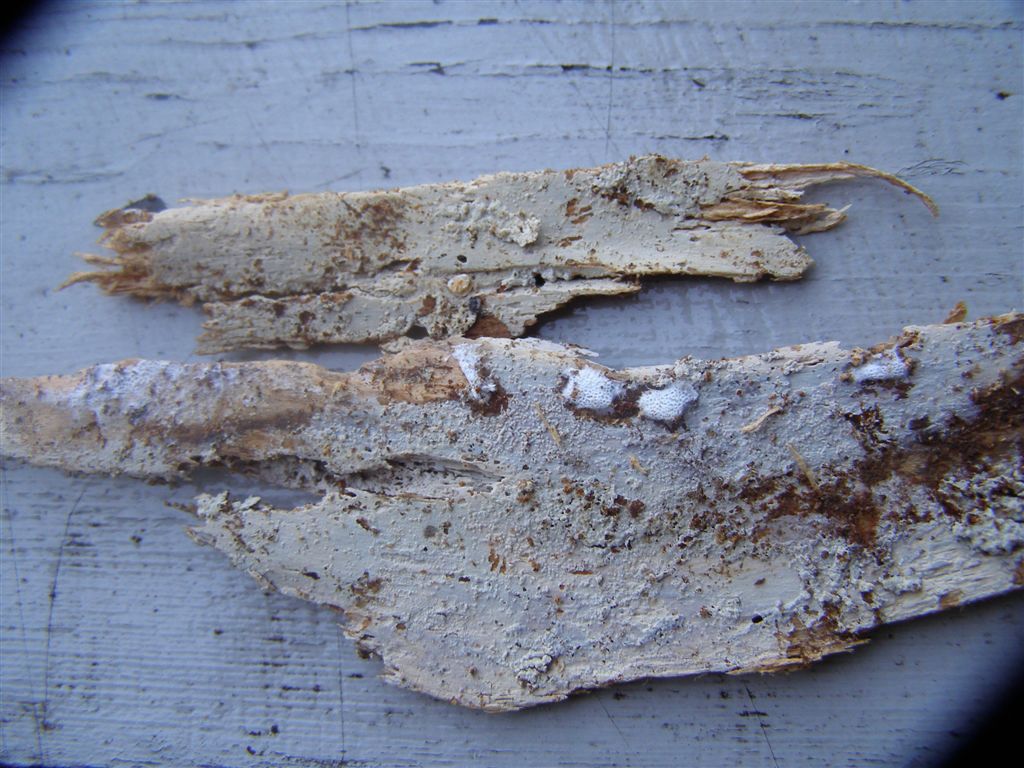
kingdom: Fungi
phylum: Basidiomycota
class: Agaricomycetes
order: Hymenochaetales
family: Hyphodontiaceae
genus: Hyphodontia
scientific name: Hyphodontia pallidula
